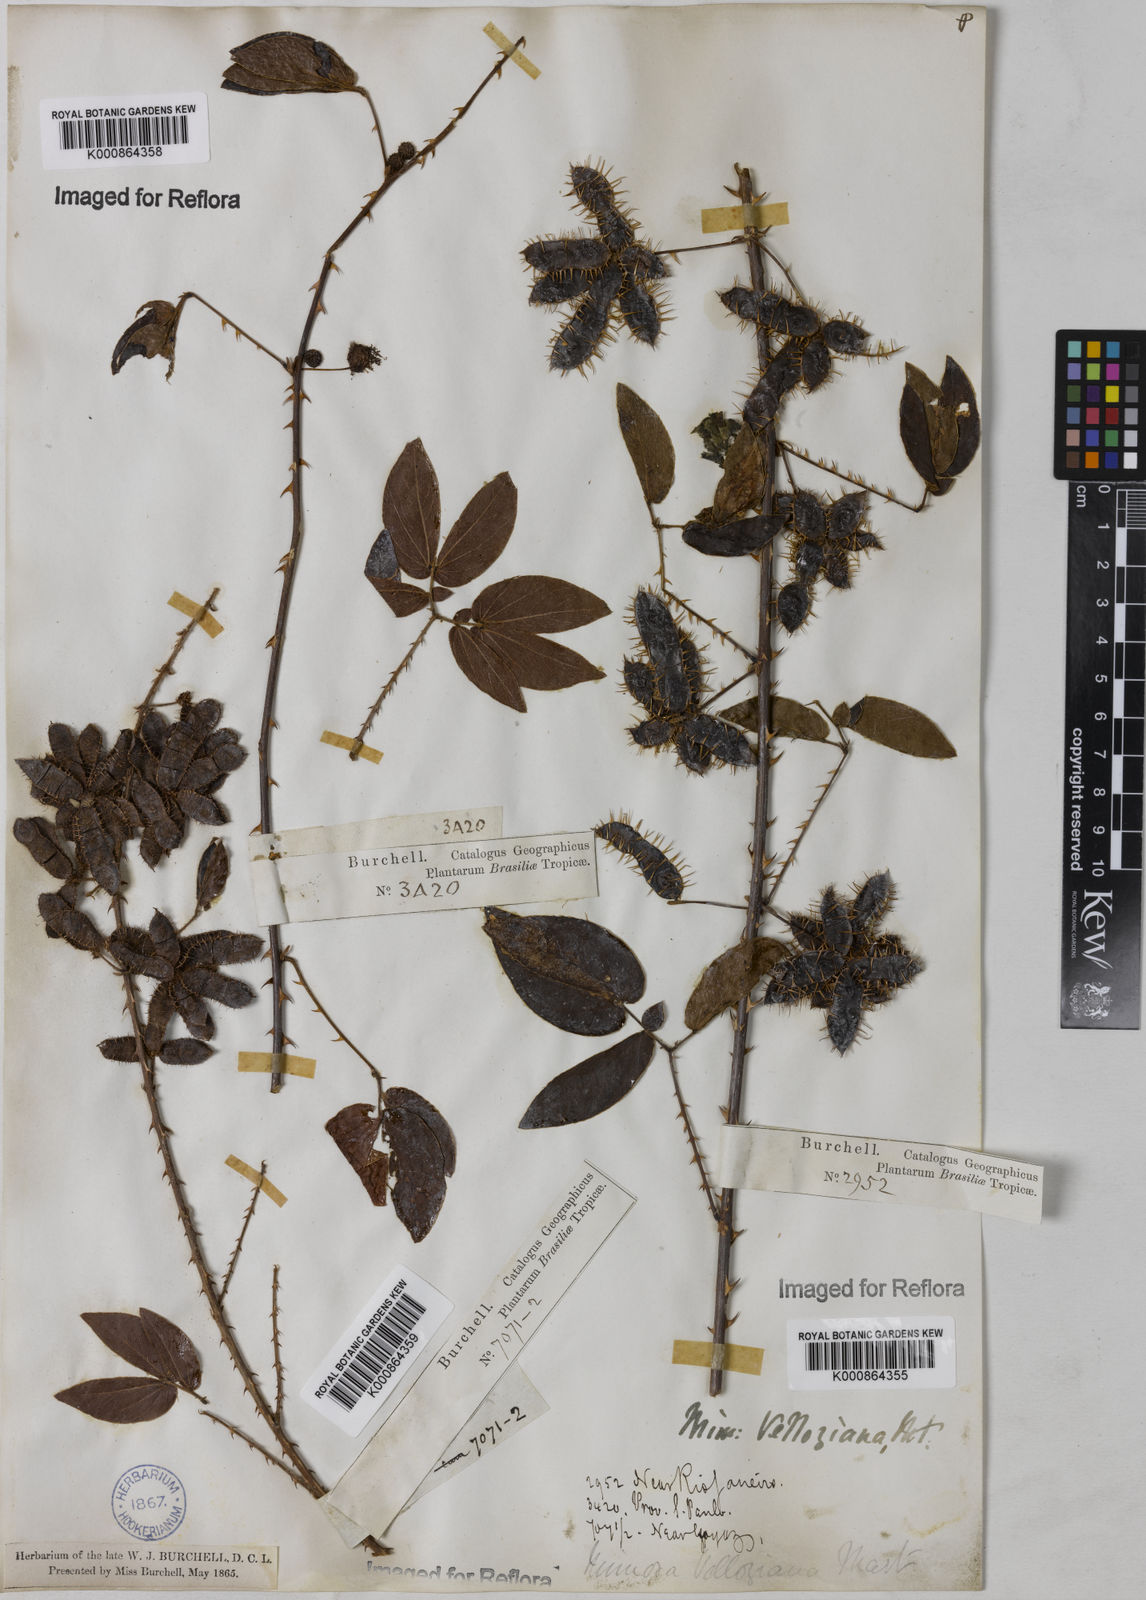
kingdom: Plantae
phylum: Tracheophyta
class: Magnoliopsida
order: Fabales
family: Fabaceae
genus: Mimosa
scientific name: Mimosa velloziana
